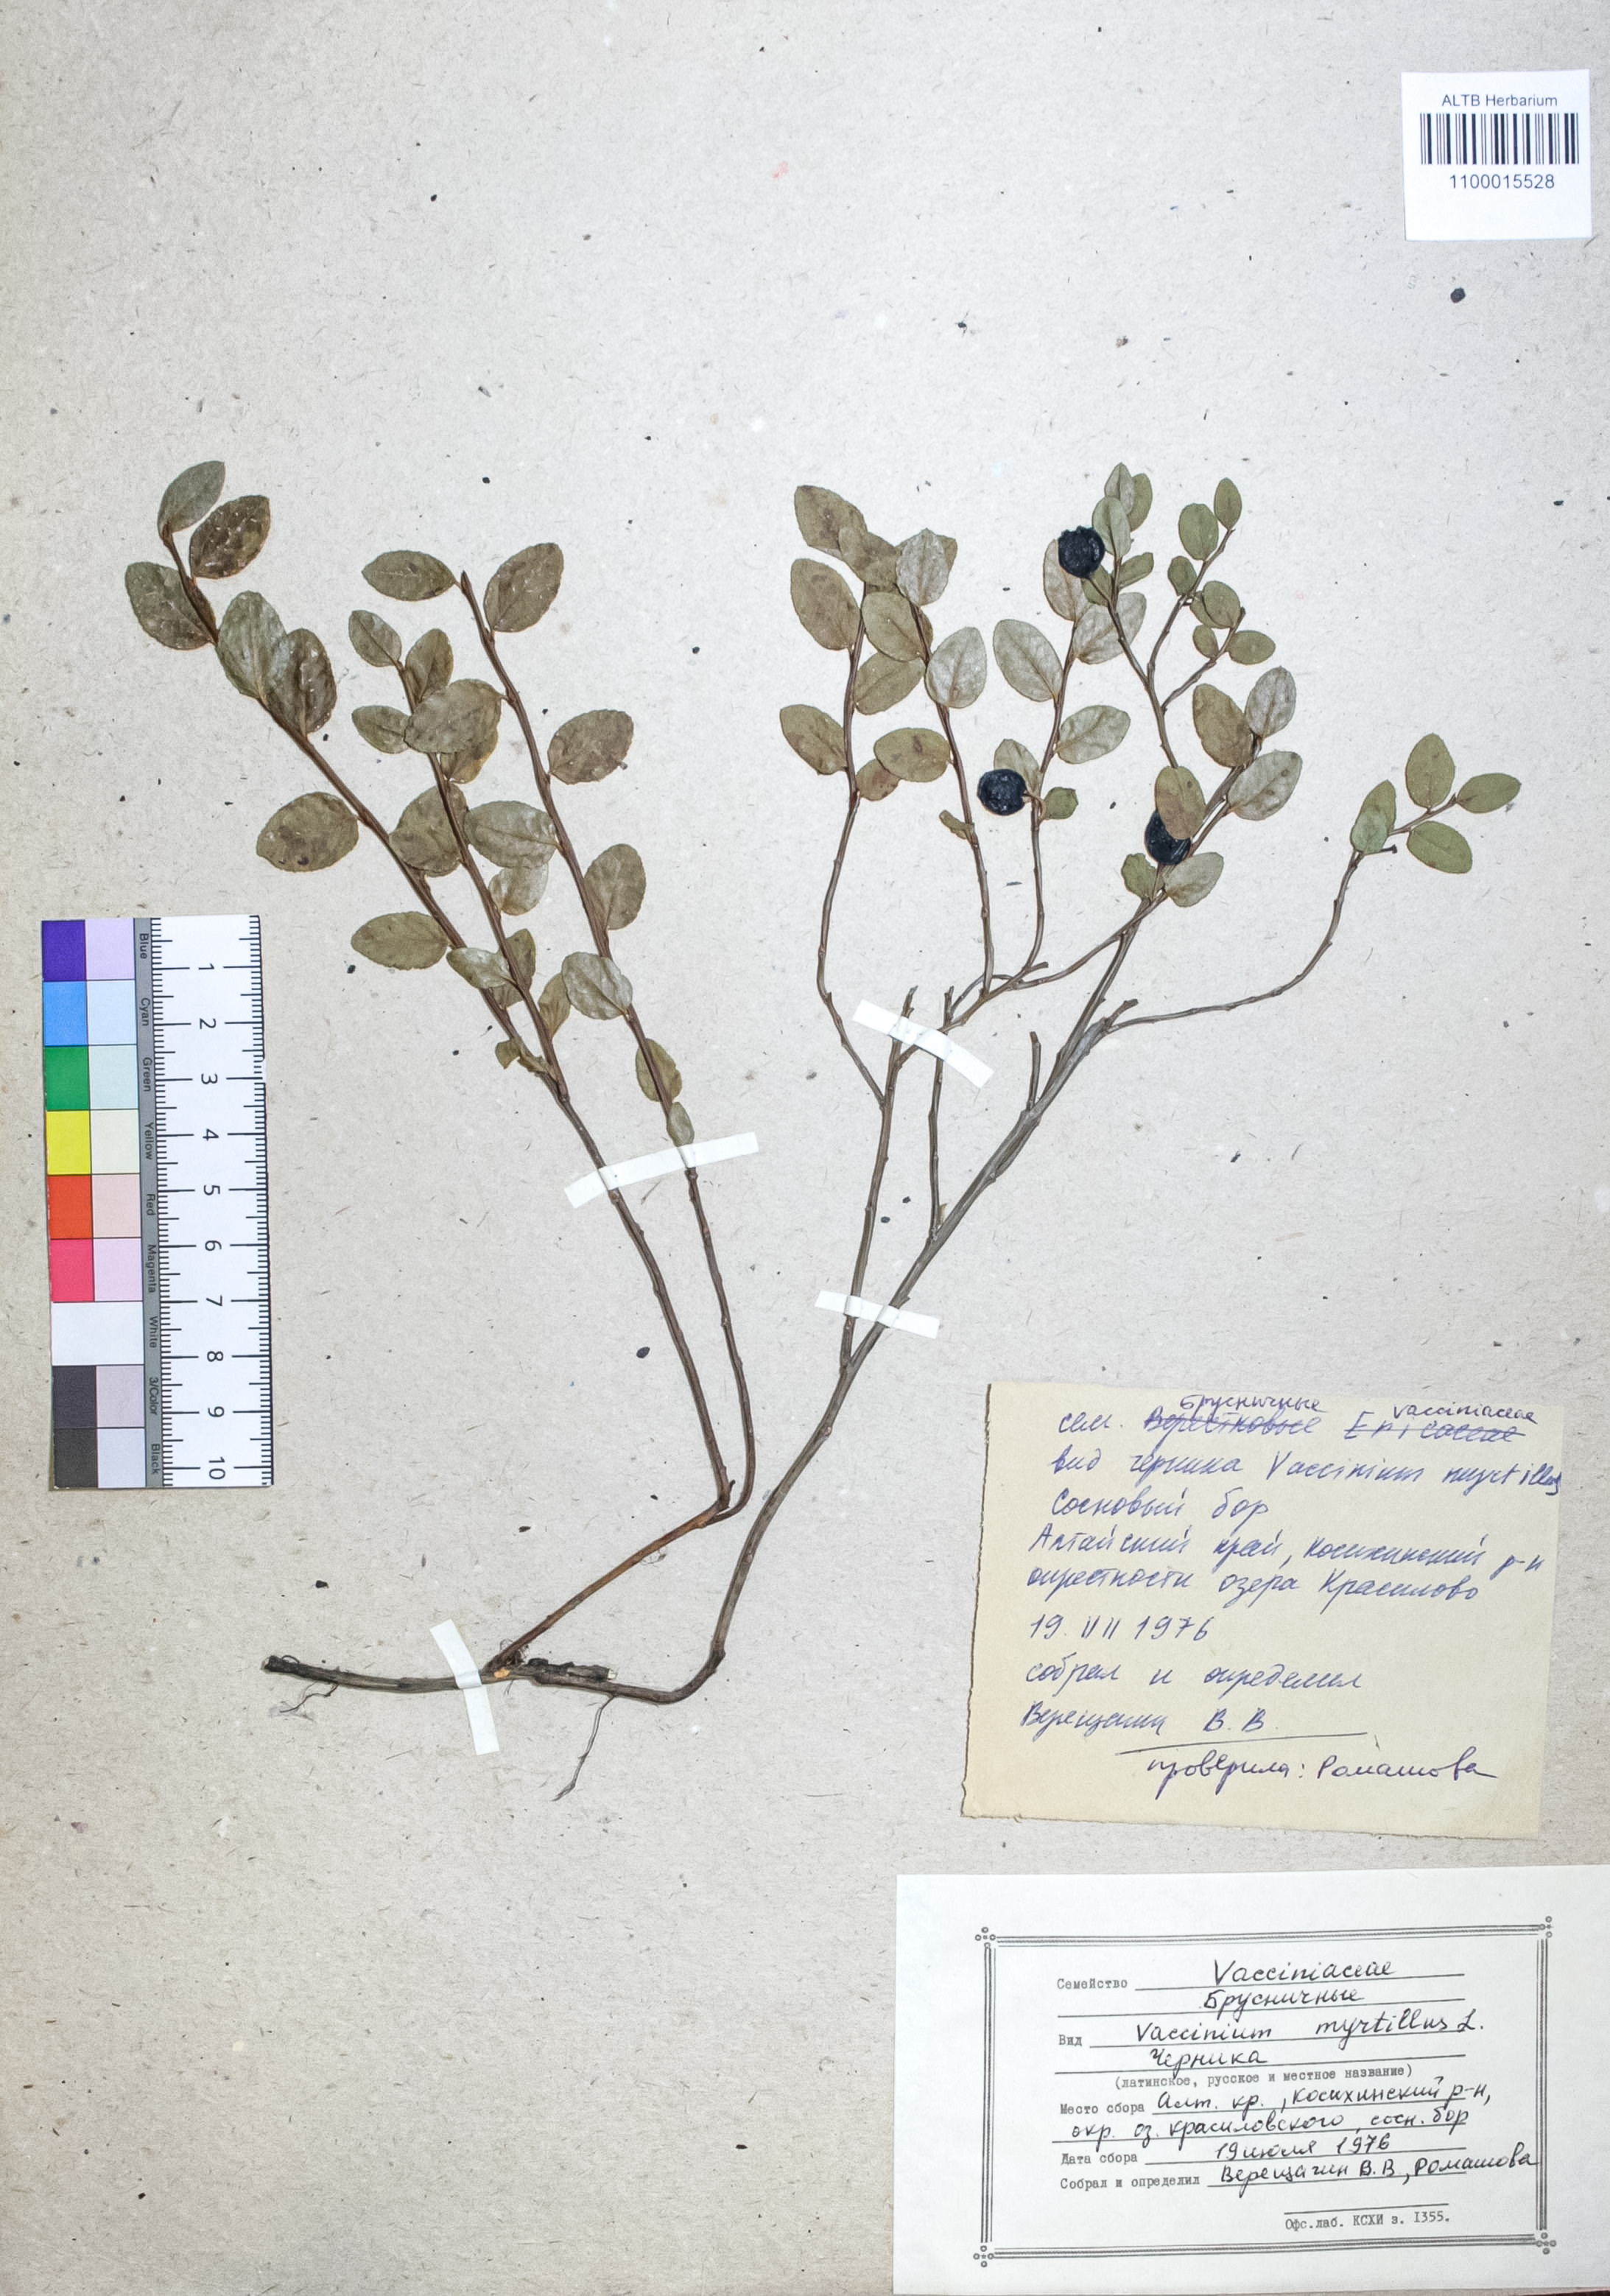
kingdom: Plantae
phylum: Tracheophyta
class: Magnoliopsida
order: Ericales
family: Ericaceae
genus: Vaccinium
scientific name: Vaccinium myrtillus
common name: Bilberry
